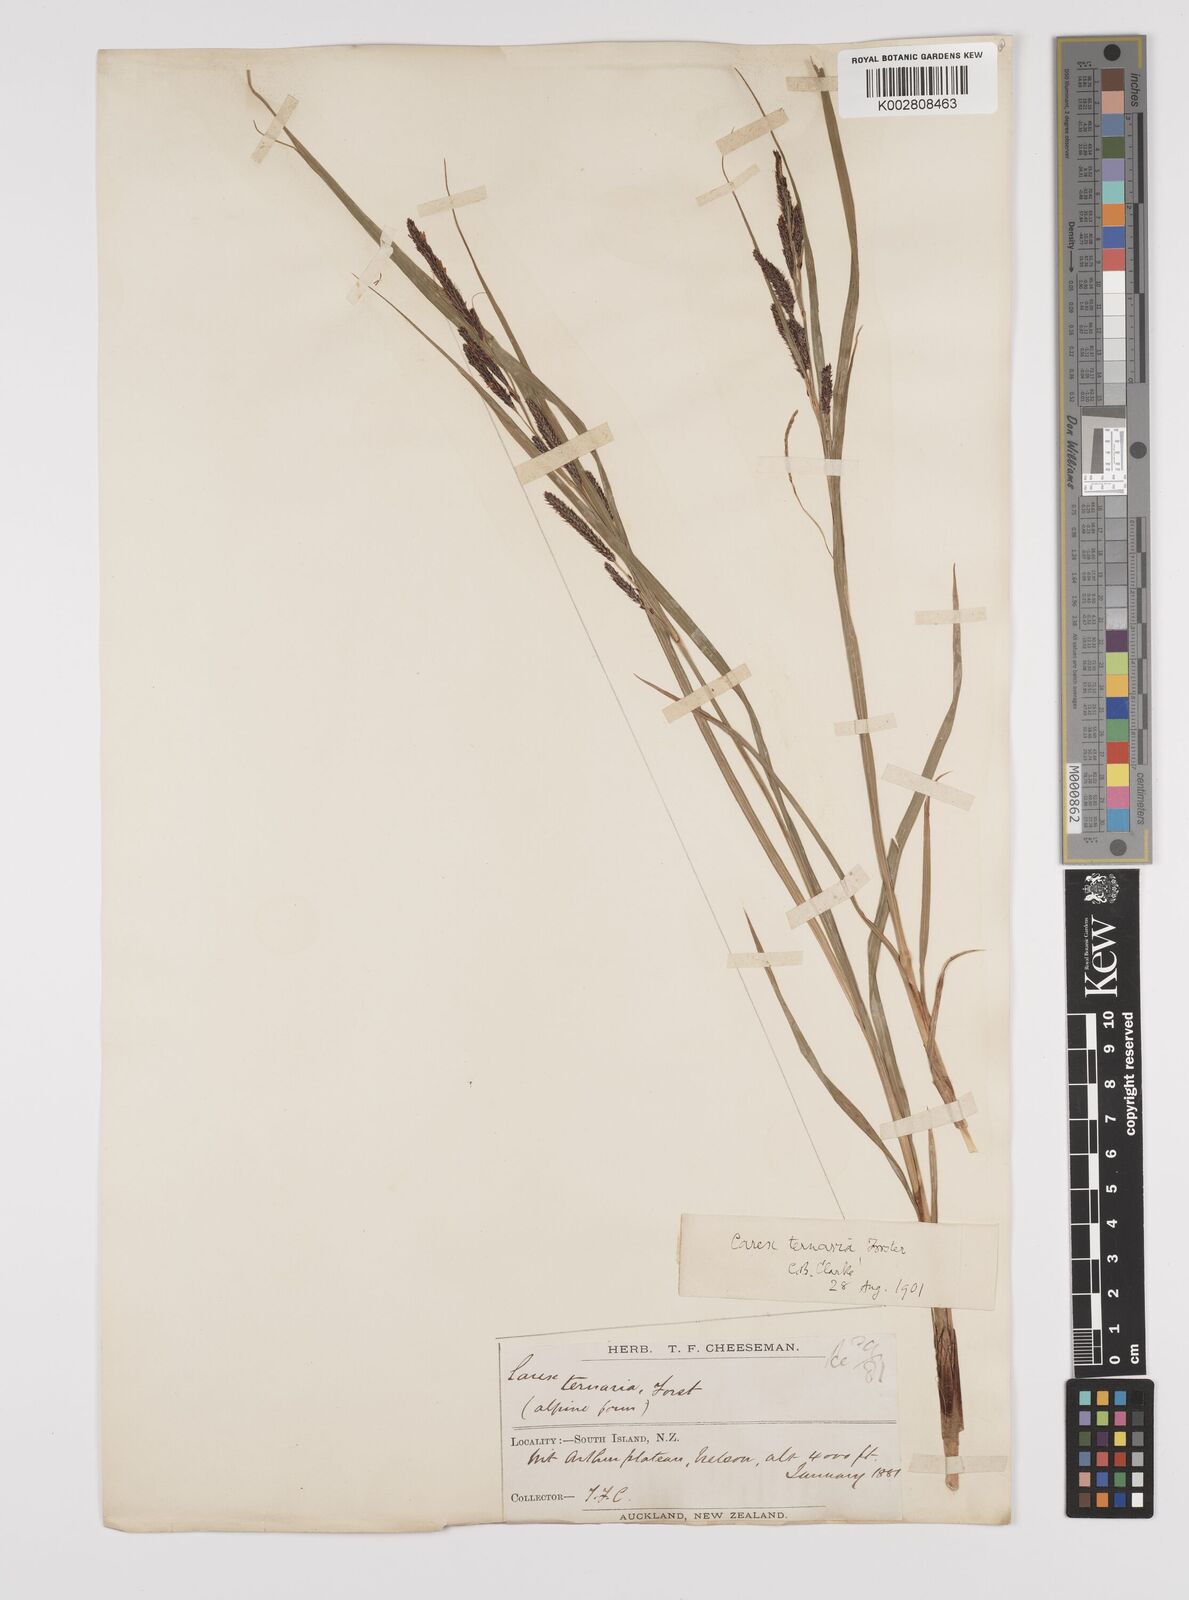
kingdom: Plantae
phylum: Tracheophyta
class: Liliopsida
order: Poales
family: Cyperaceae
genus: Carex
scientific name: Carex coriacea
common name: Rautahi
